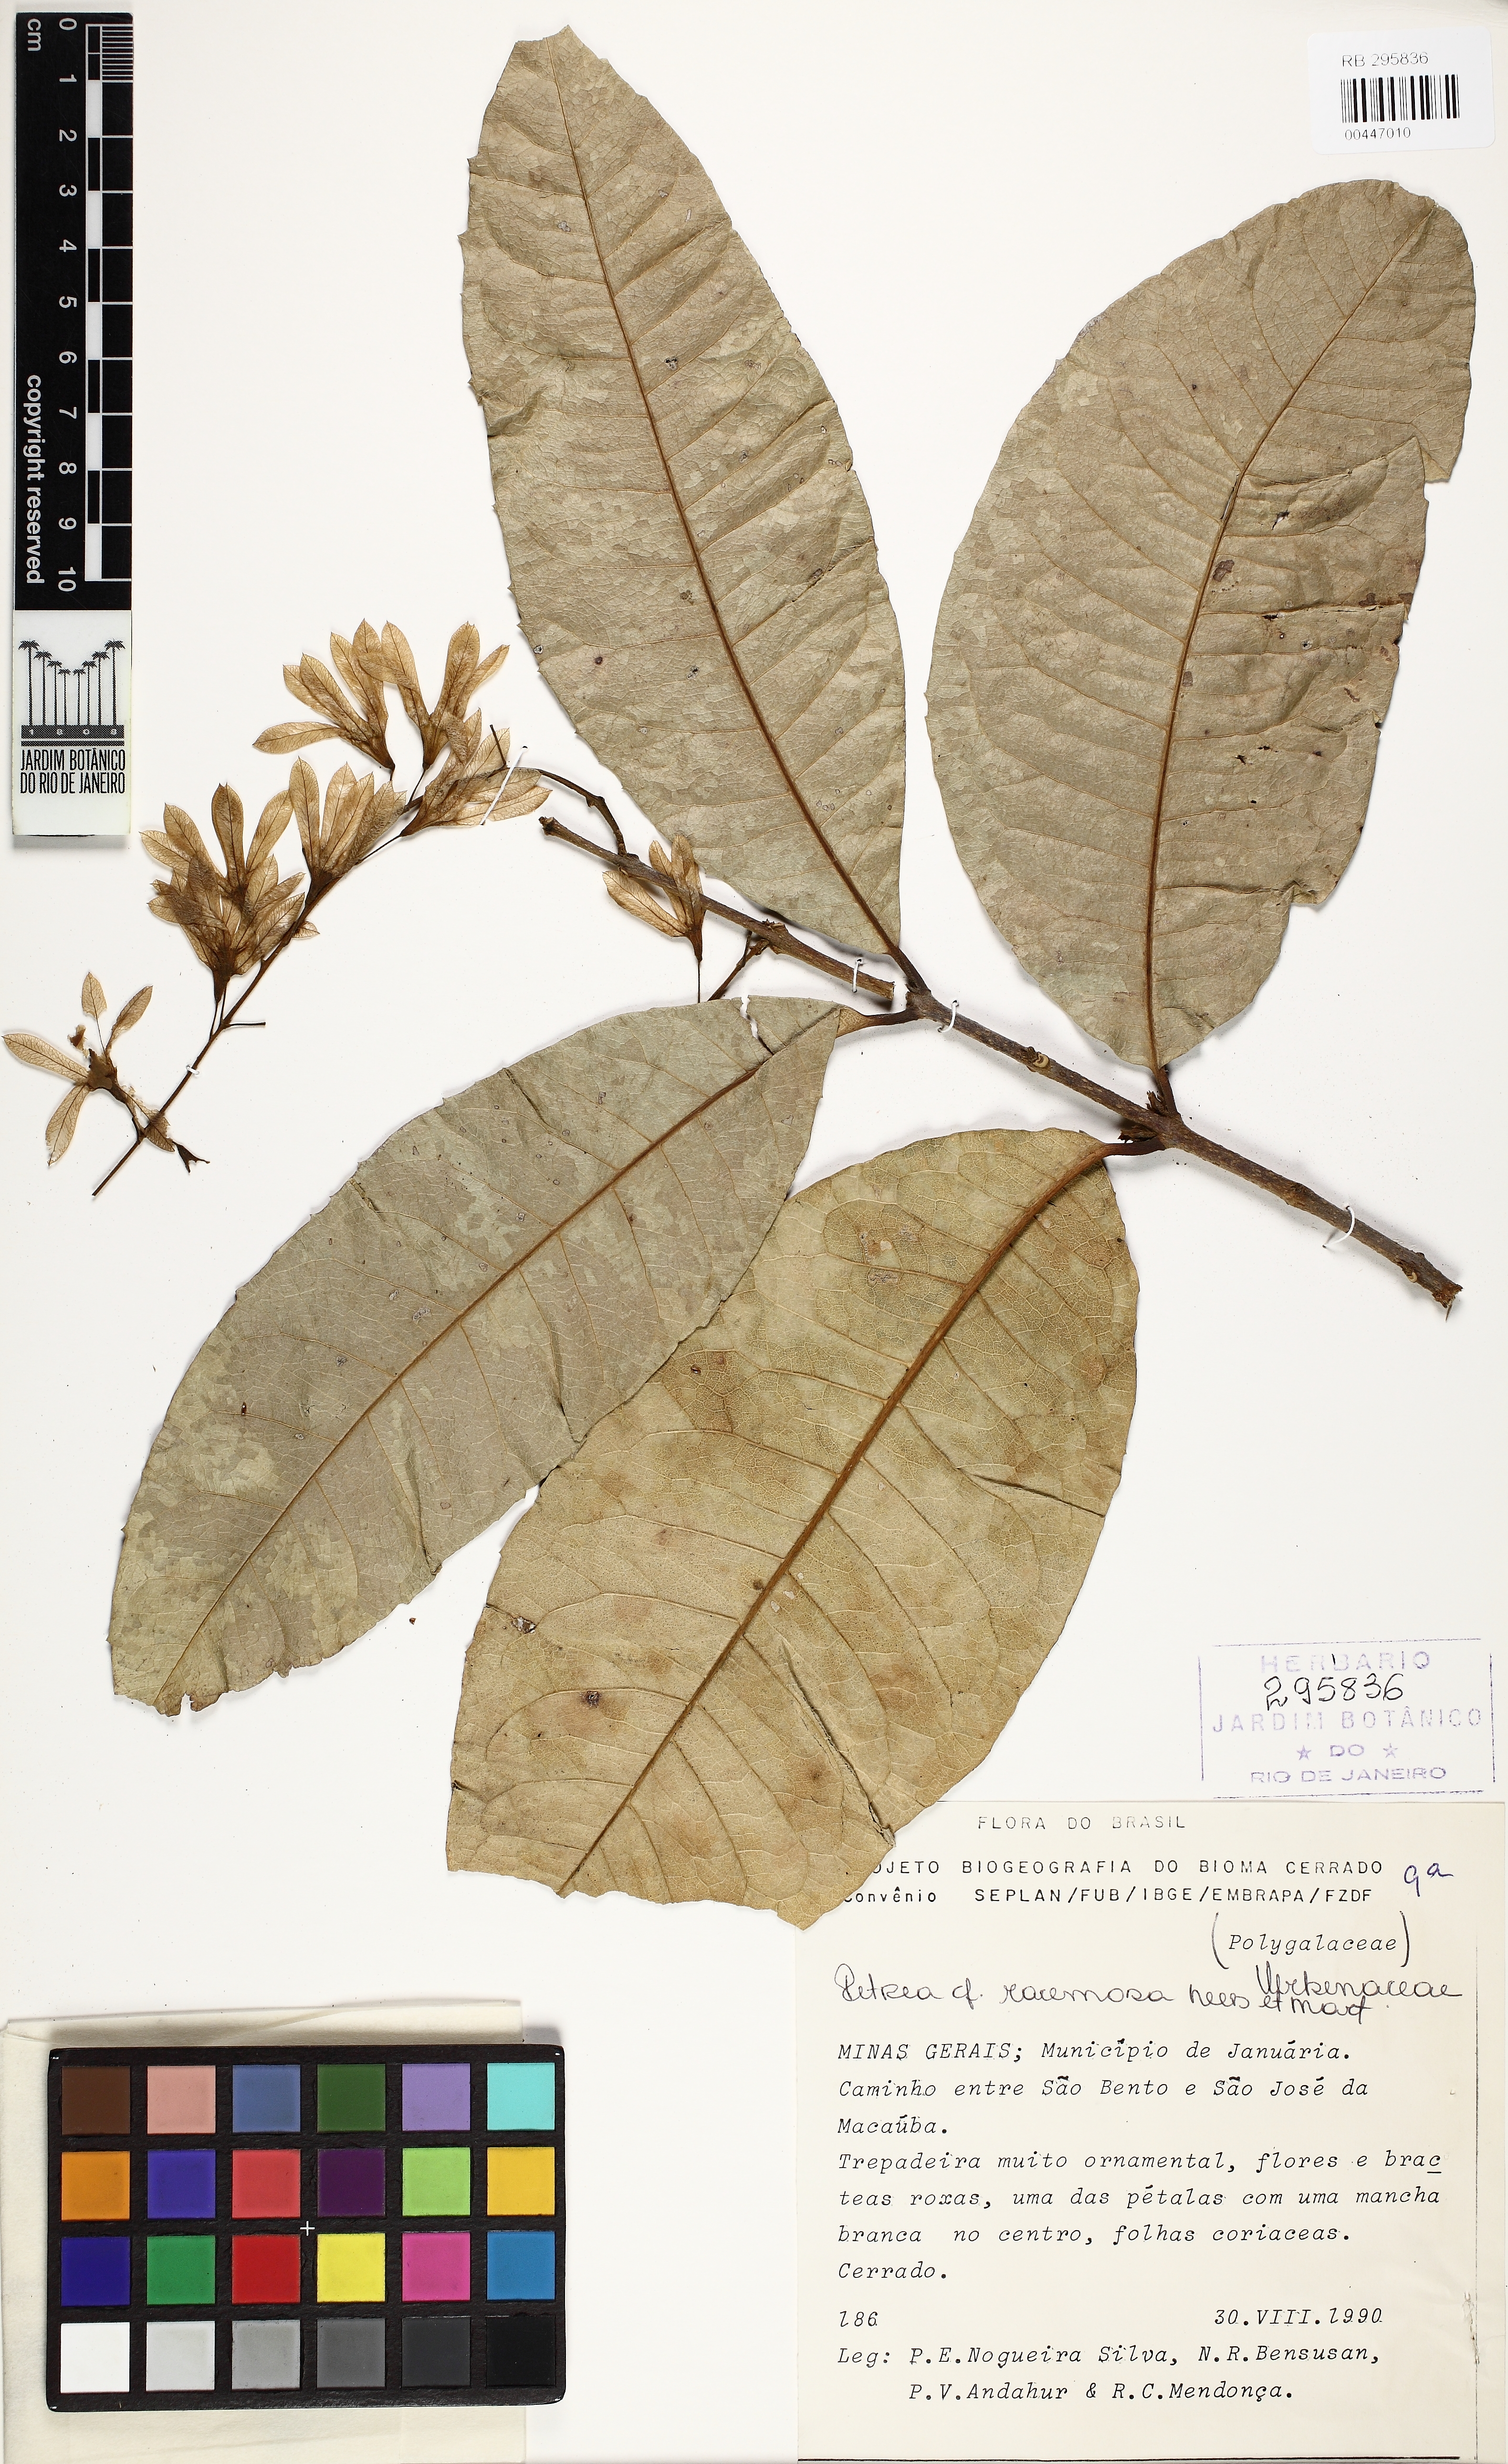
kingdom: Plantae
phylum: Tracheophyta
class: Magnoliopsida
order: Lamiales
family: Verbenaceae
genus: Petrea
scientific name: Petrea volubilis
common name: Queen's-wreath
